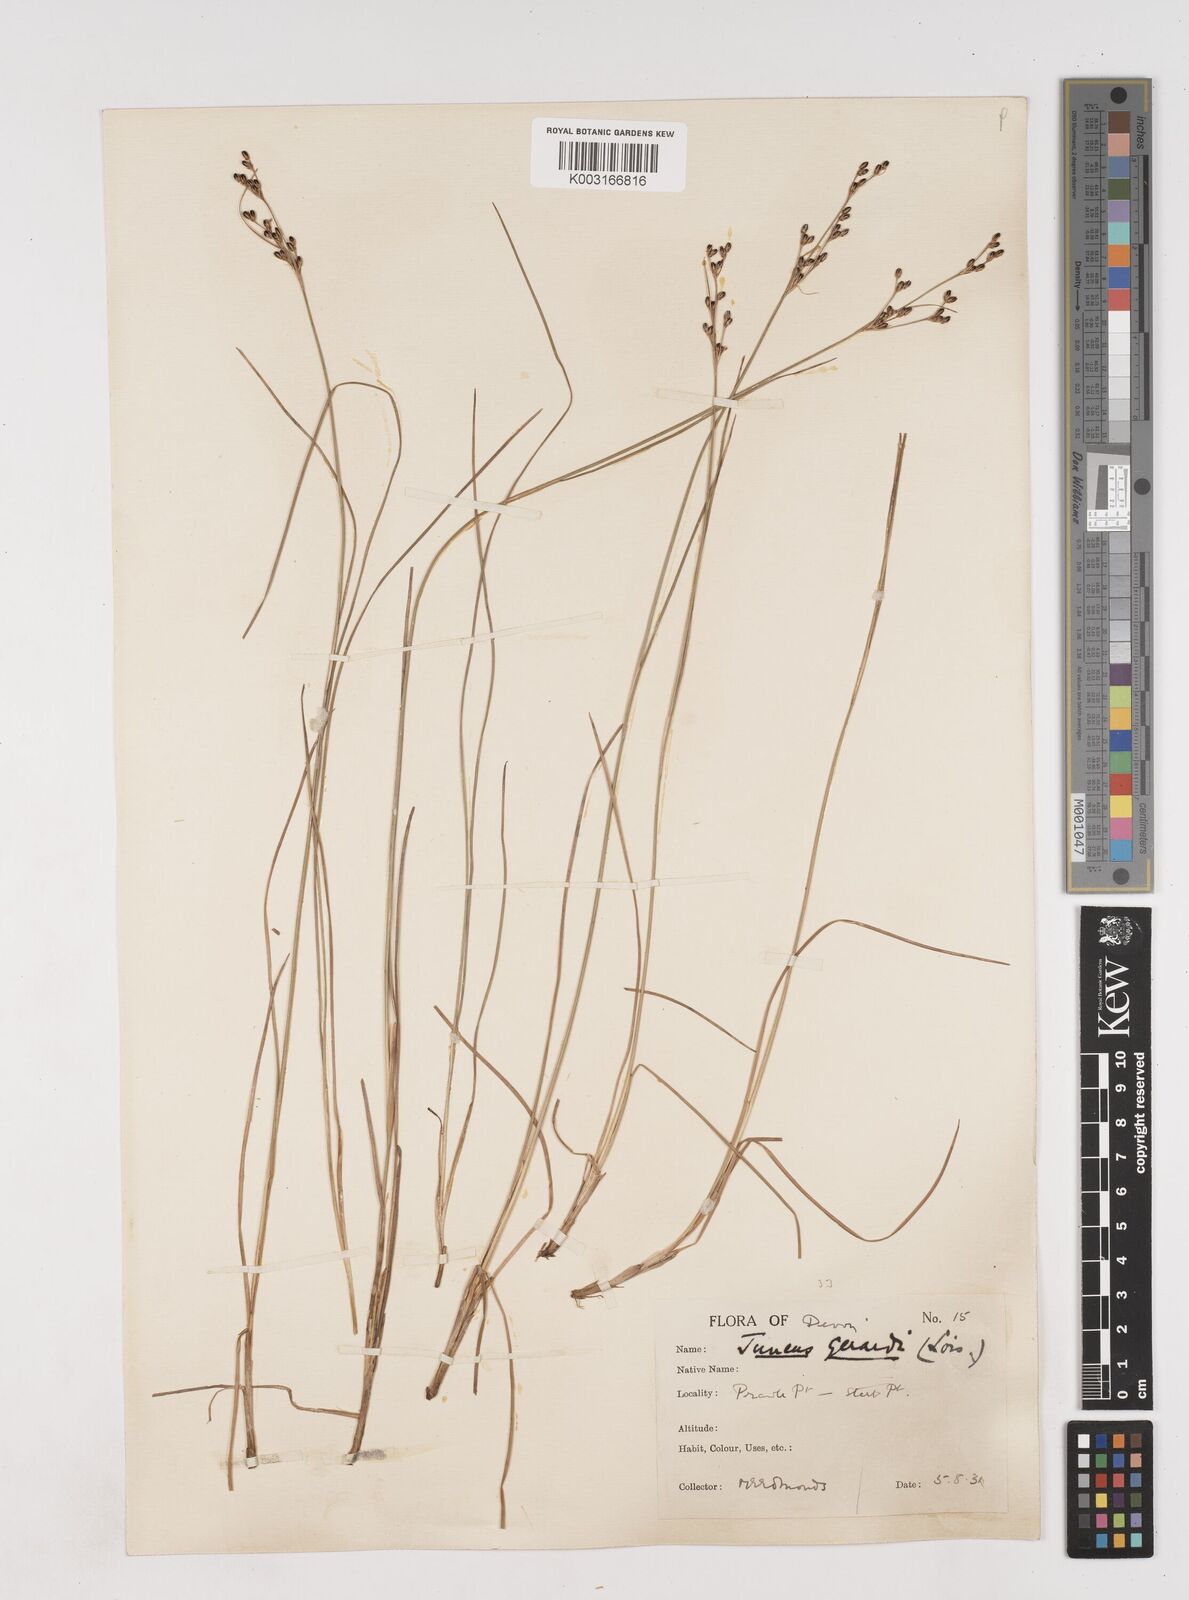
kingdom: Plantae
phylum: Tracheophyta
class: Liliopsida
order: Poales
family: Juncaceae
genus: Juncus
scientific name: Juncus gerardi
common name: Saltmarsh rush
